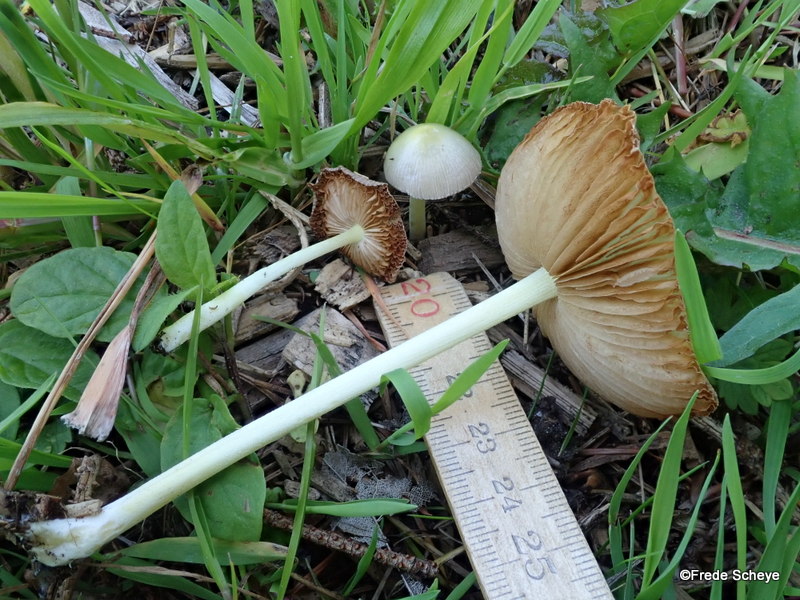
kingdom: Fungi
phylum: Basidiomycota
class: Agaricomycetes
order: Agaricales
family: Bolbitiaceae
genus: Bolbitius
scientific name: Bolbitius titubans
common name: almindelig gulhat
